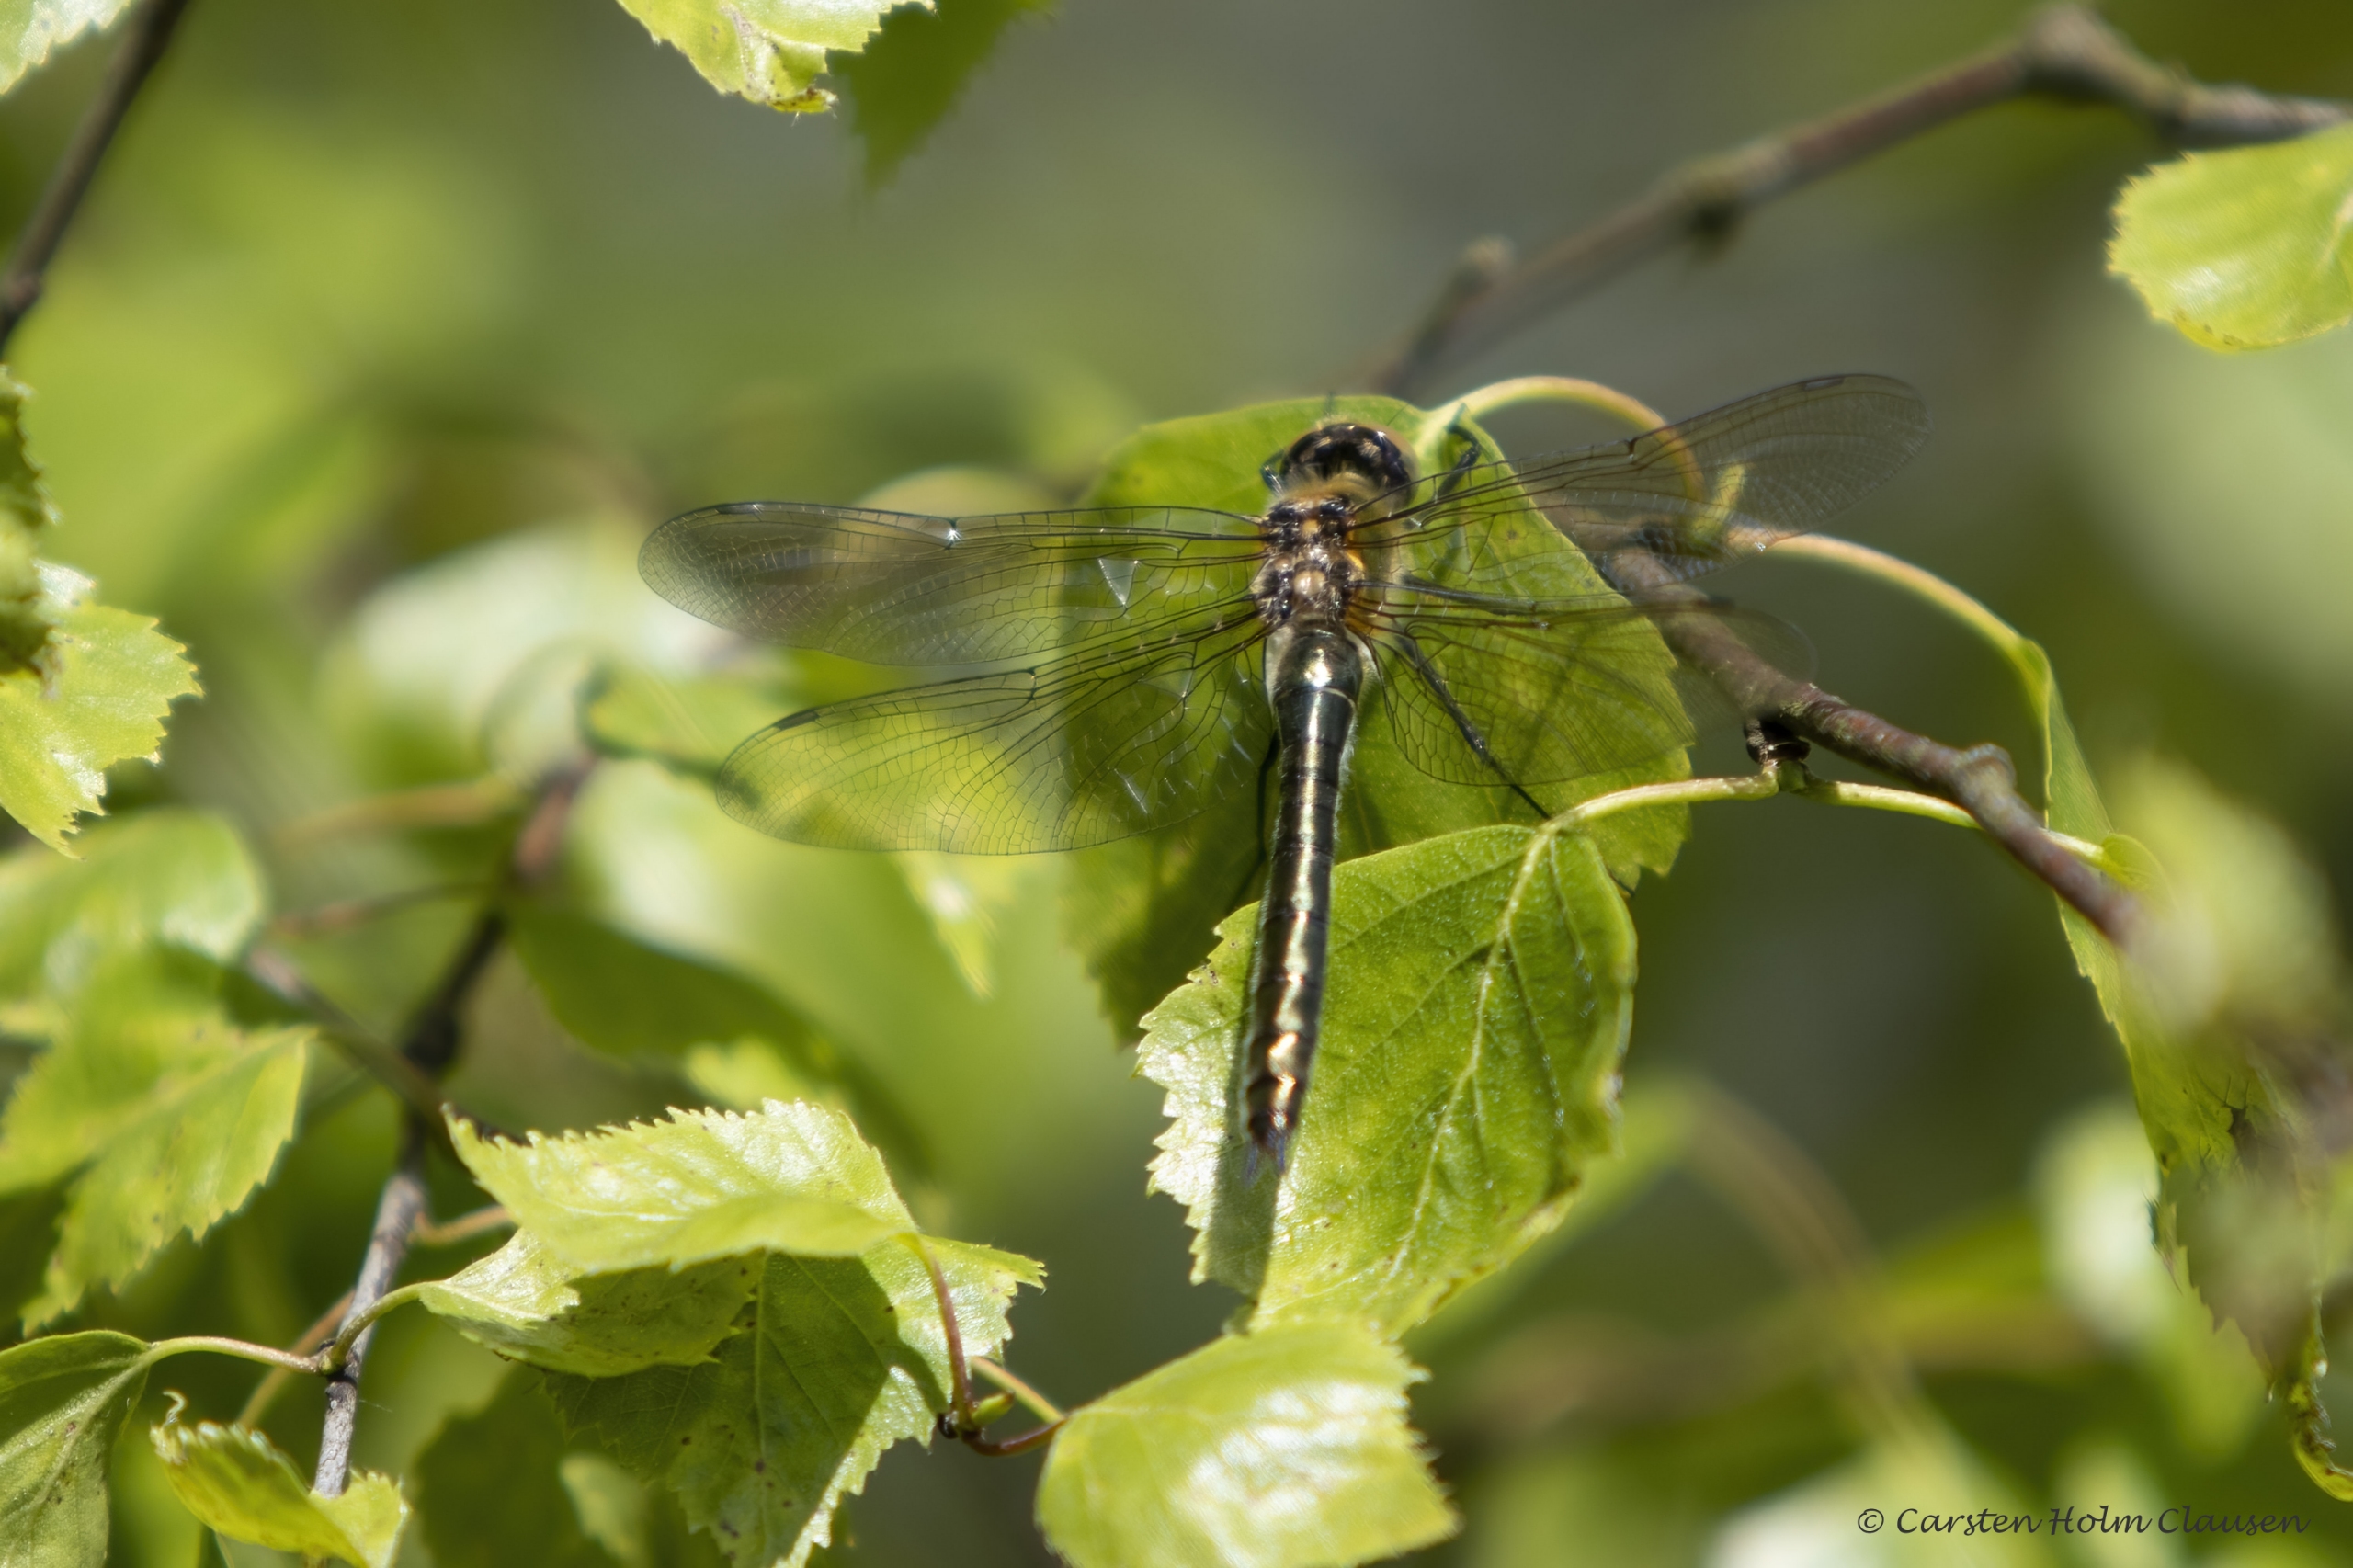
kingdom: Animalia
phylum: Arthropoda
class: Insecta
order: Odonata
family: Corduliidae
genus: Cordulia
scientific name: Cordulia aenea
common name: Grøn smaragdlibel
